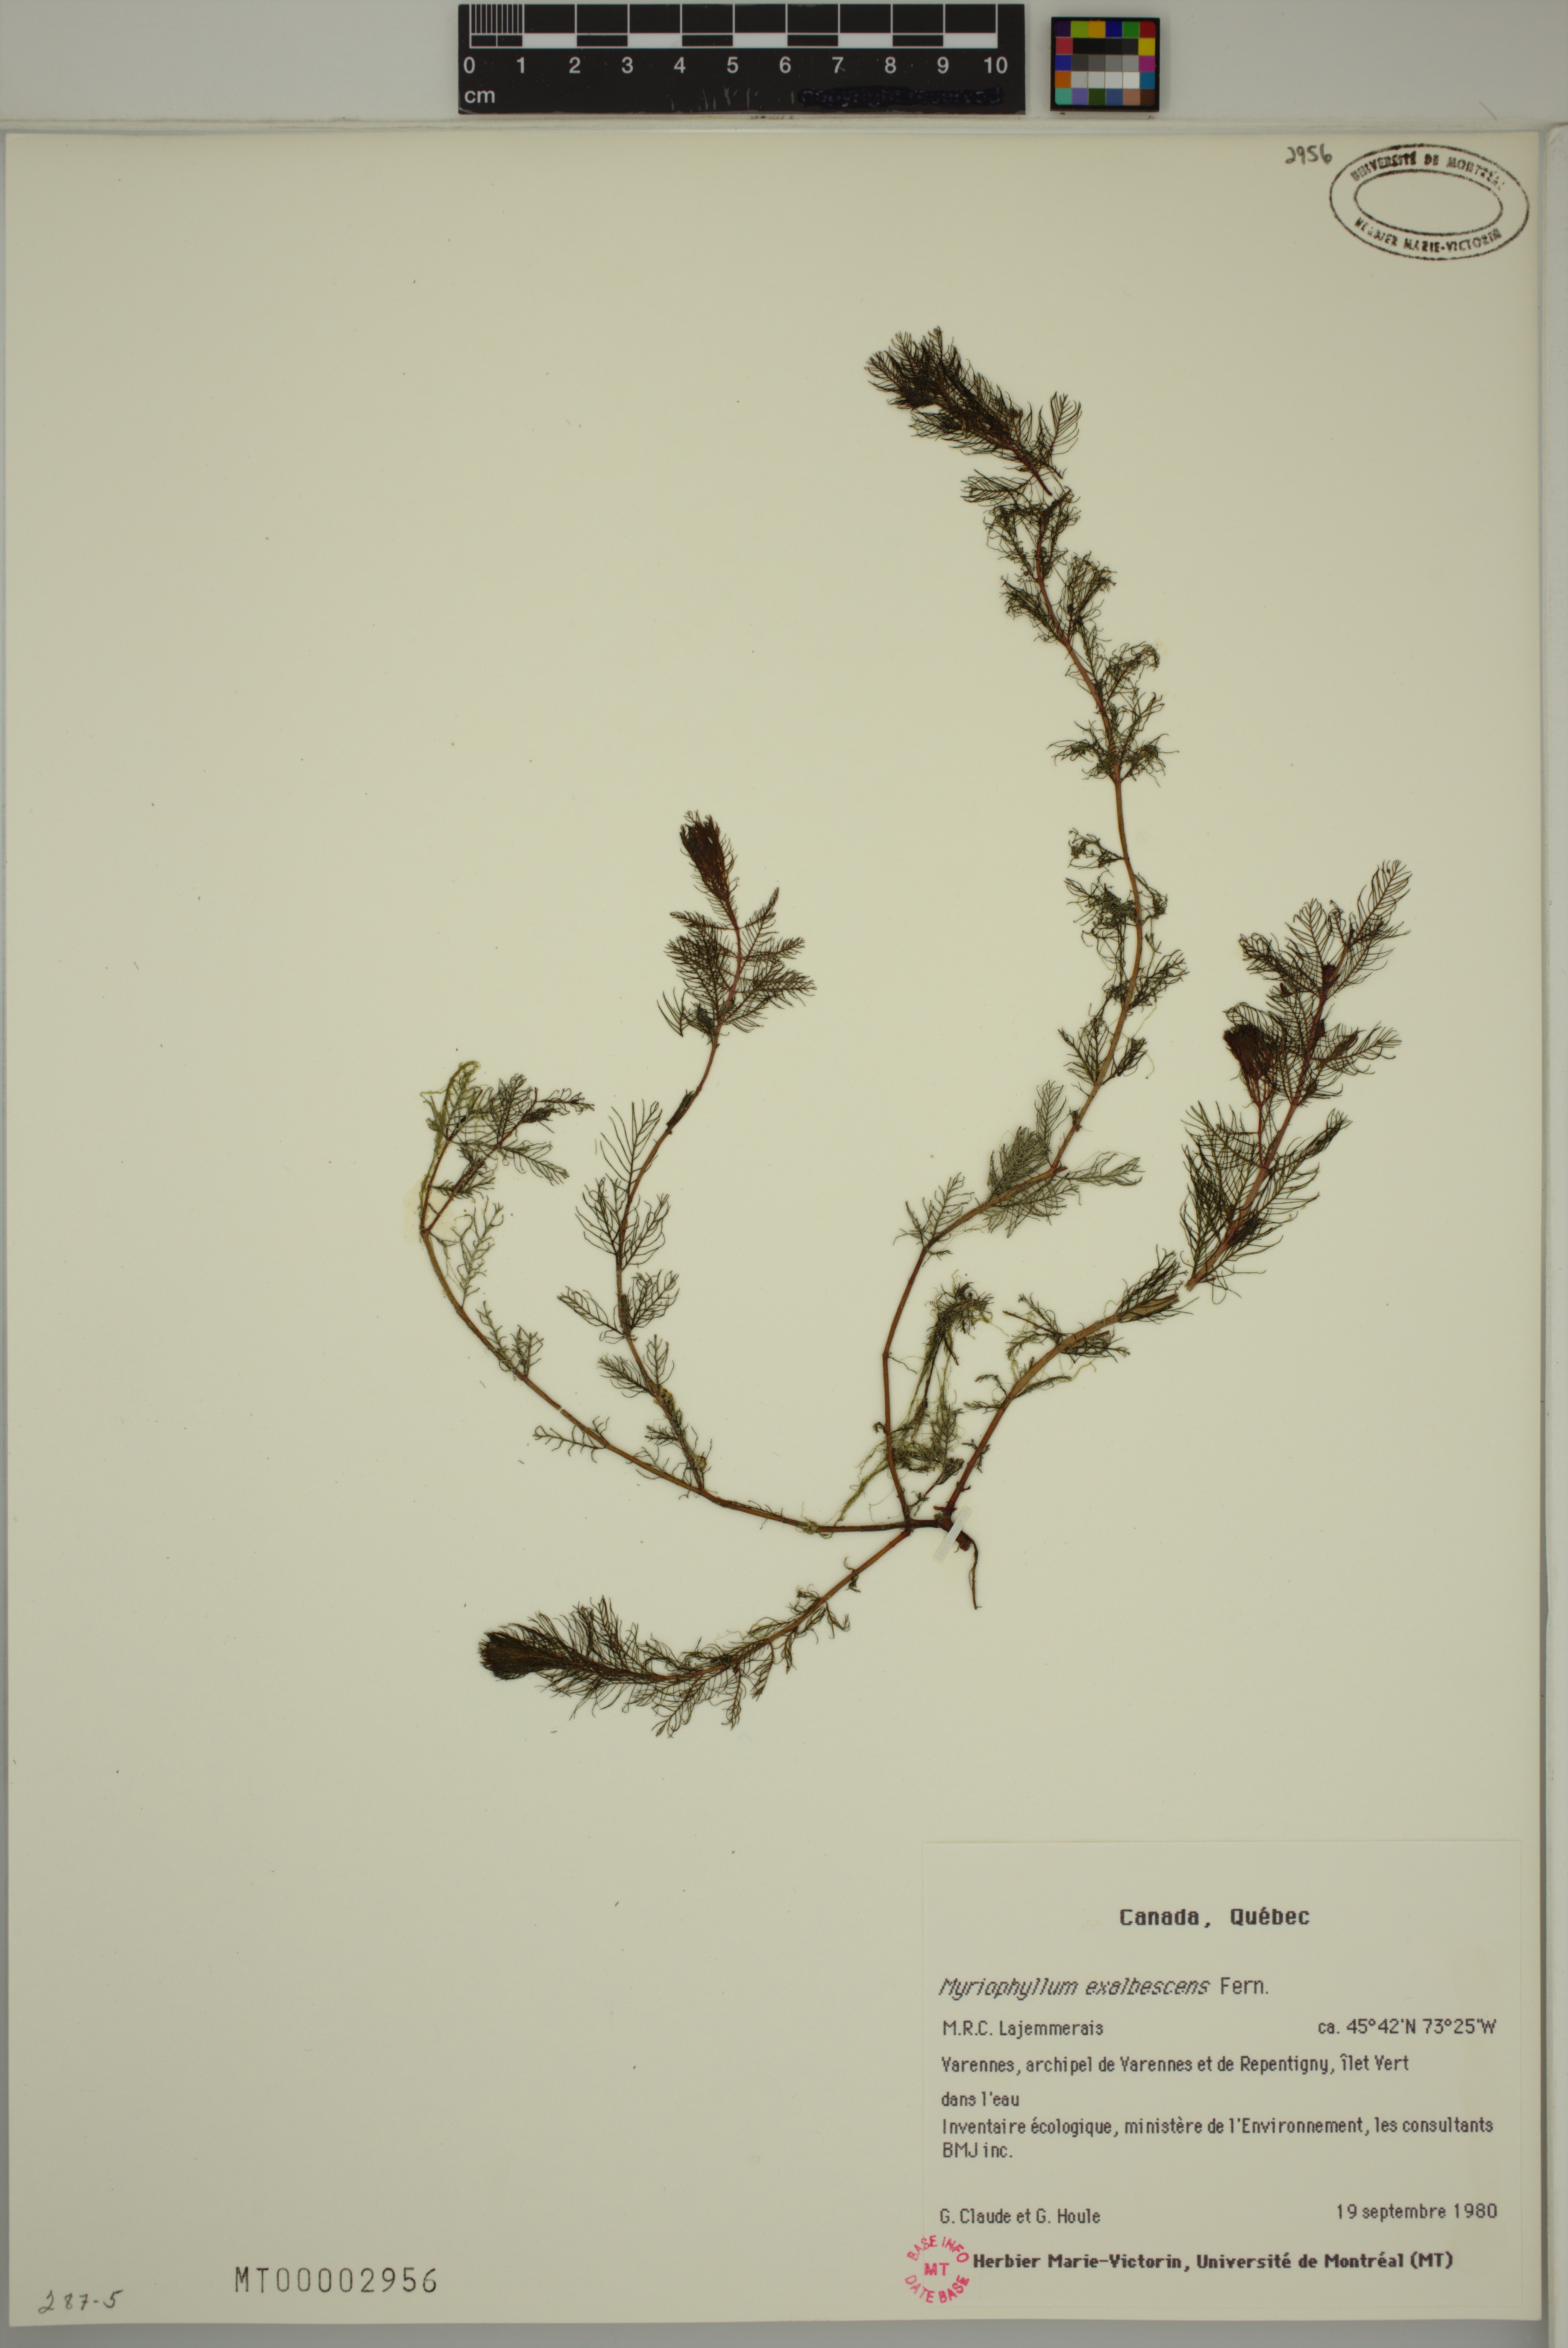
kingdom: Plantae
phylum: Tracheophyta
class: Magnoliopsida
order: Saxifragales
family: Haloragaceae
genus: Myriophyllum
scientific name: Myriophyllum sibiricum
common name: Siberian water-milfoil
